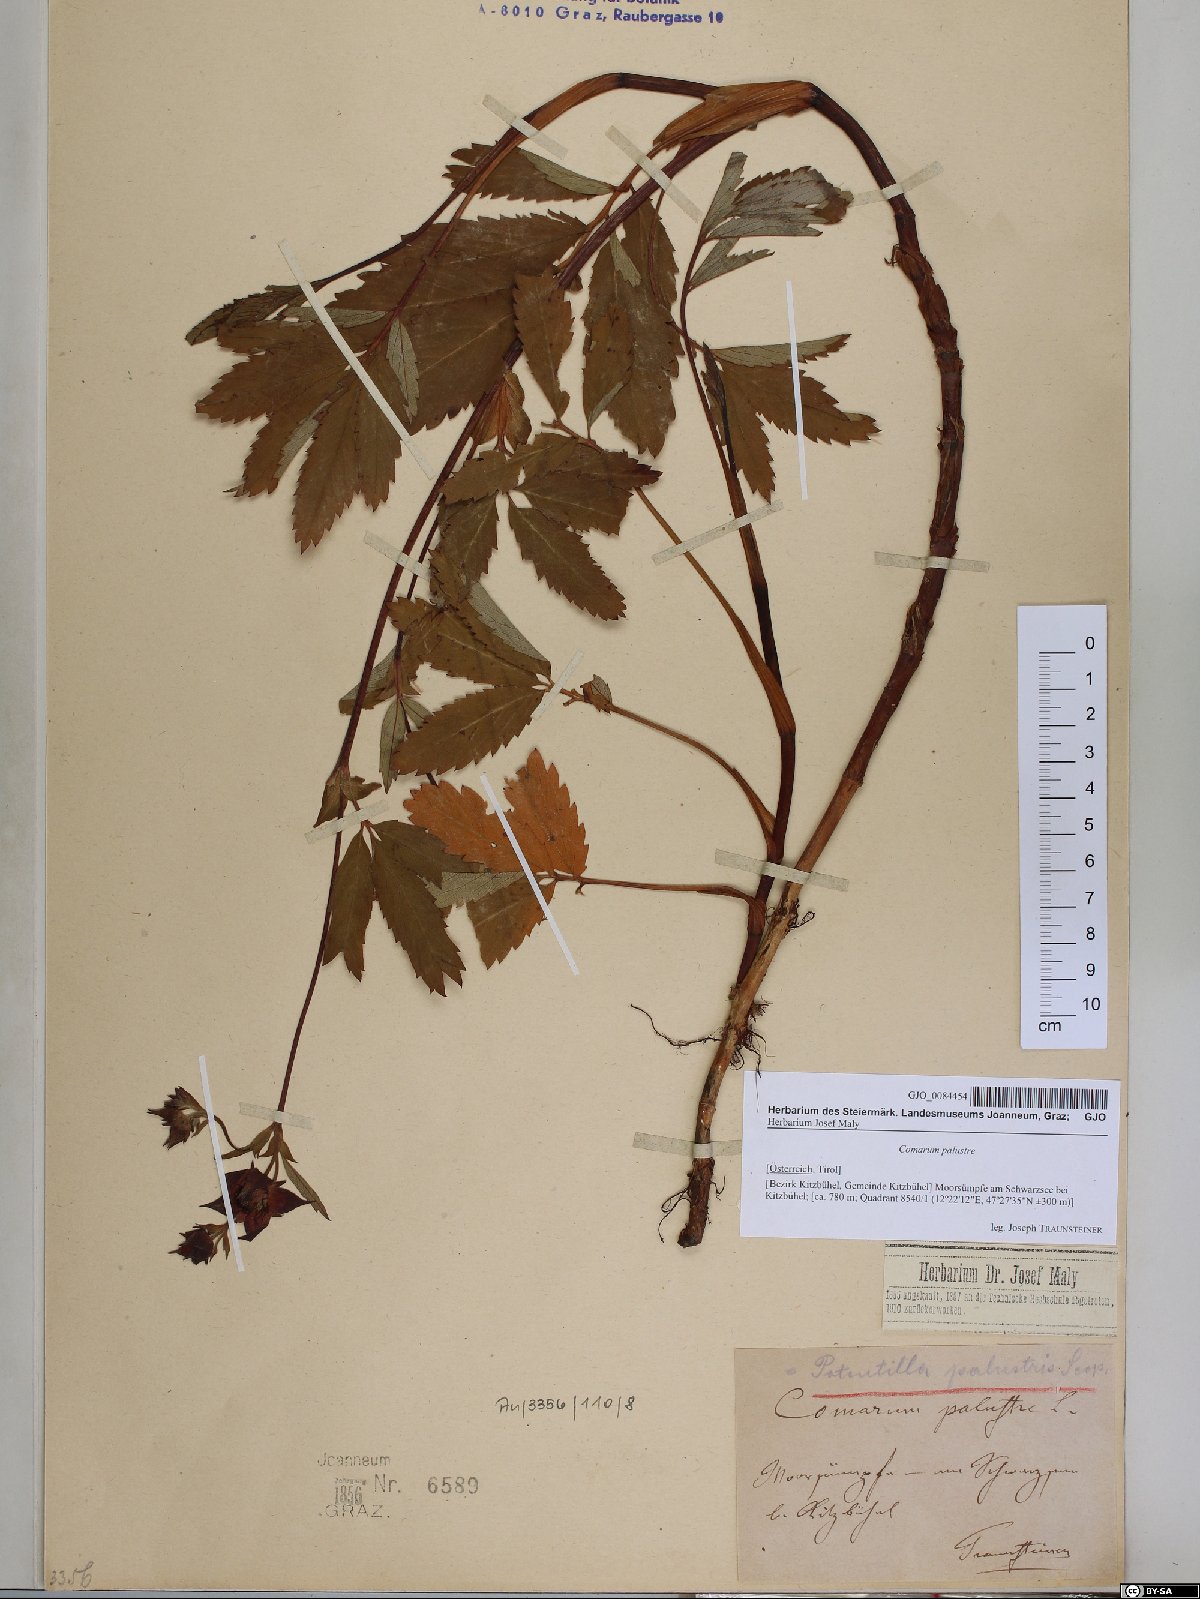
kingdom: Plantae
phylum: Tracheophyta
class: Magnoliopsida
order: Rosales
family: Rosaceae
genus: Comarum
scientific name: Comarum palustre
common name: Marsh cinquefoil
